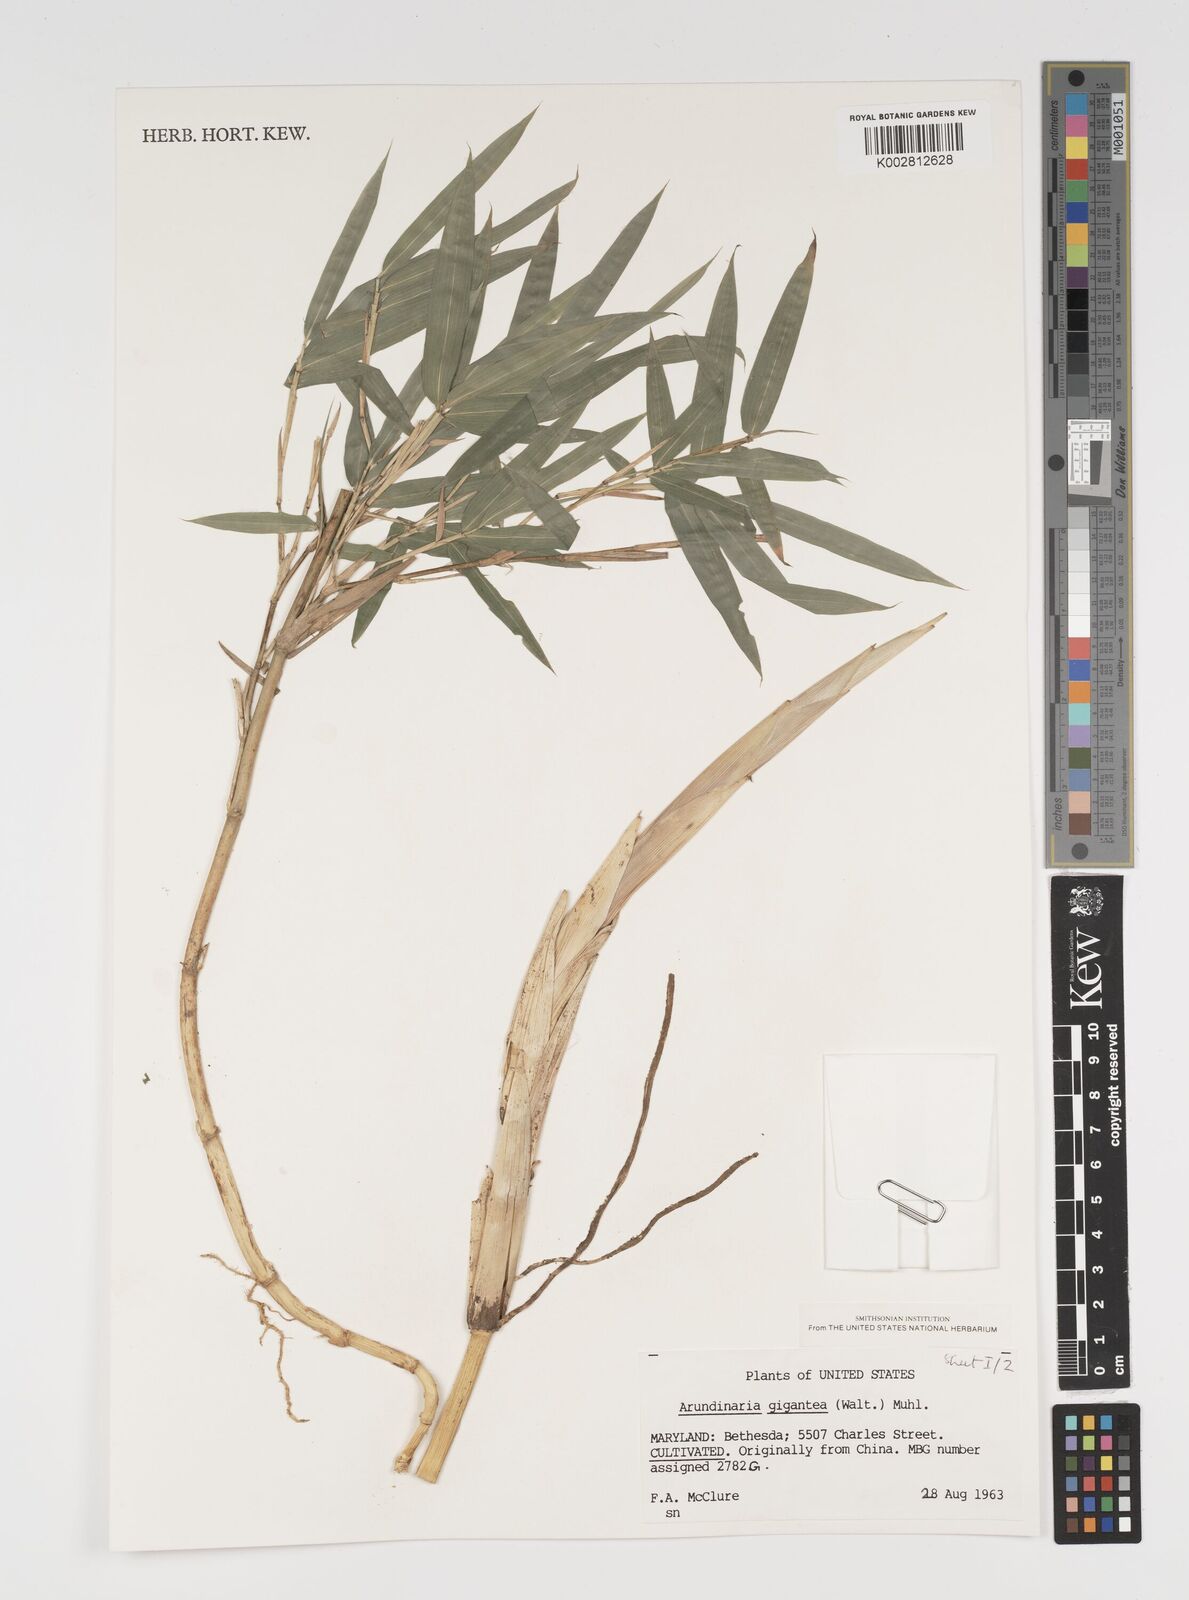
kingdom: Plantae
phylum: Tracheophyta
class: Liliopsida
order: Poales
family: Poaceae
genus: Arundinaria
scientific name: Arundinaria
